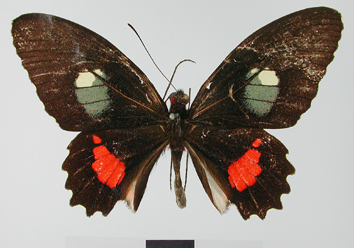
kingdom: Animalia
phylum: Arthropoda
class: Insecta
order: Lepidoptera
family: Papilionidae
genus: Parides
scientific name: Parides iphidamas
